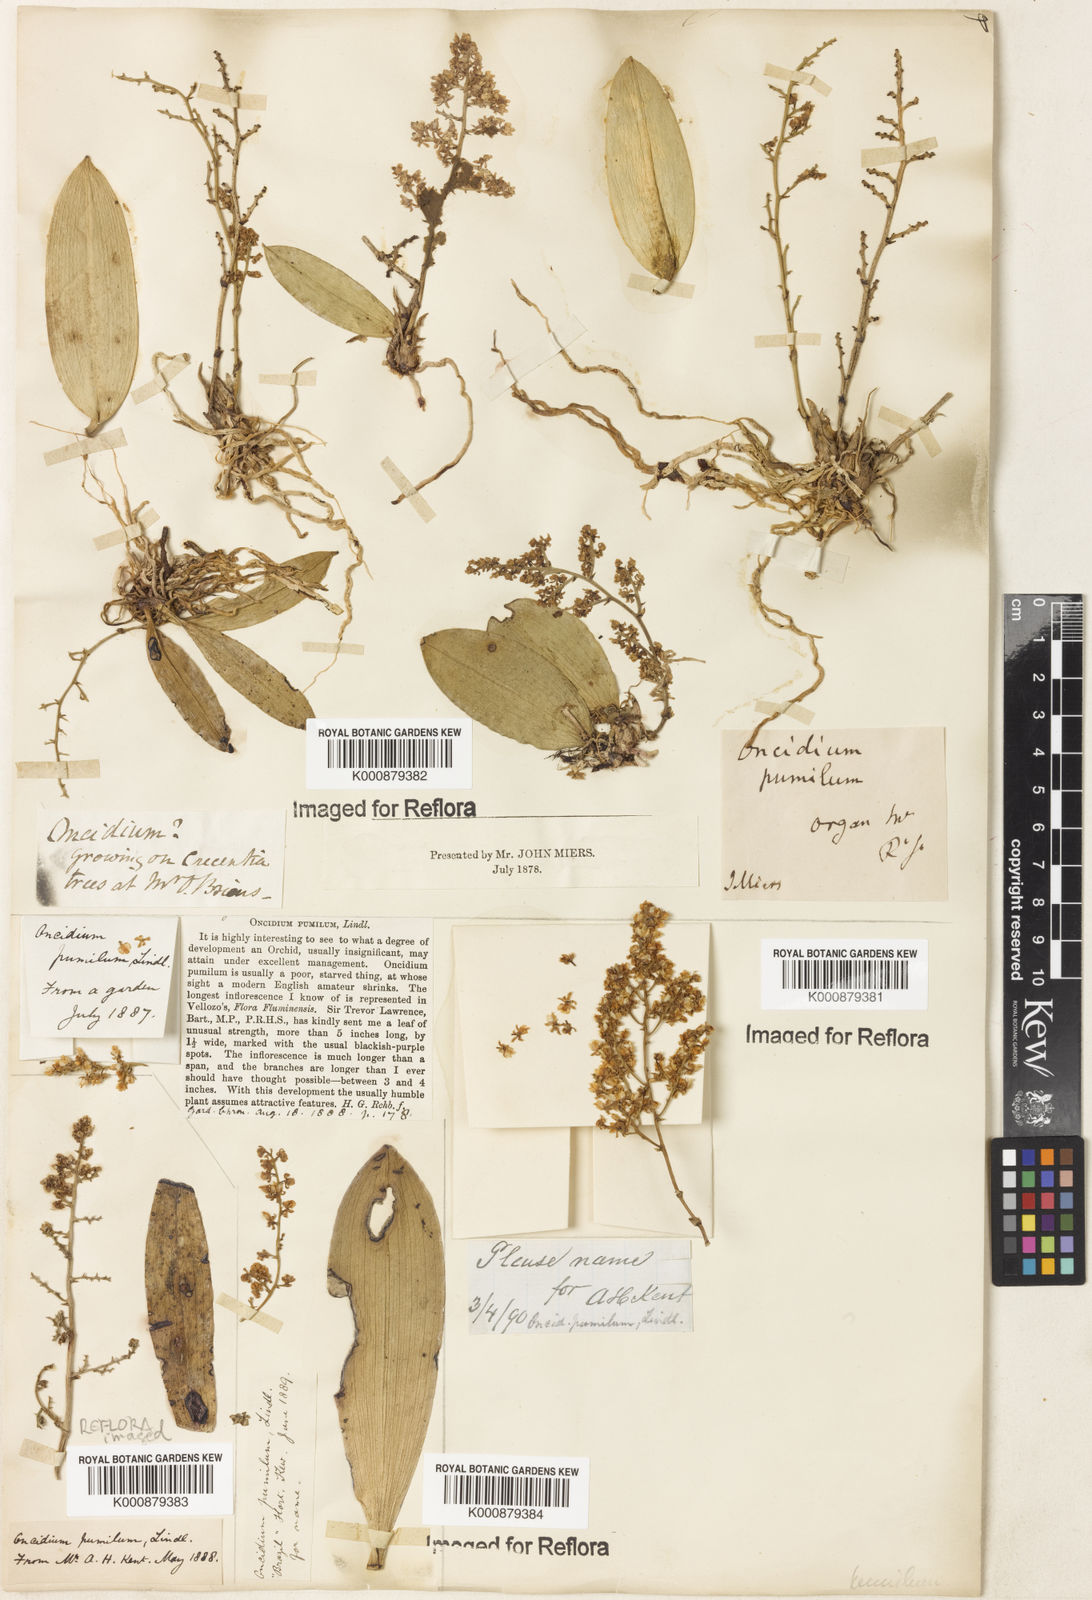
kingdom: Plantae
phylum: Tracheophyta
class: Liliopsida
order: Asparagales
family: Orchidaceae
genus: Trichocentrum
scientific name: Trichocentrum pumilum
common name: Mule-ear orchid
